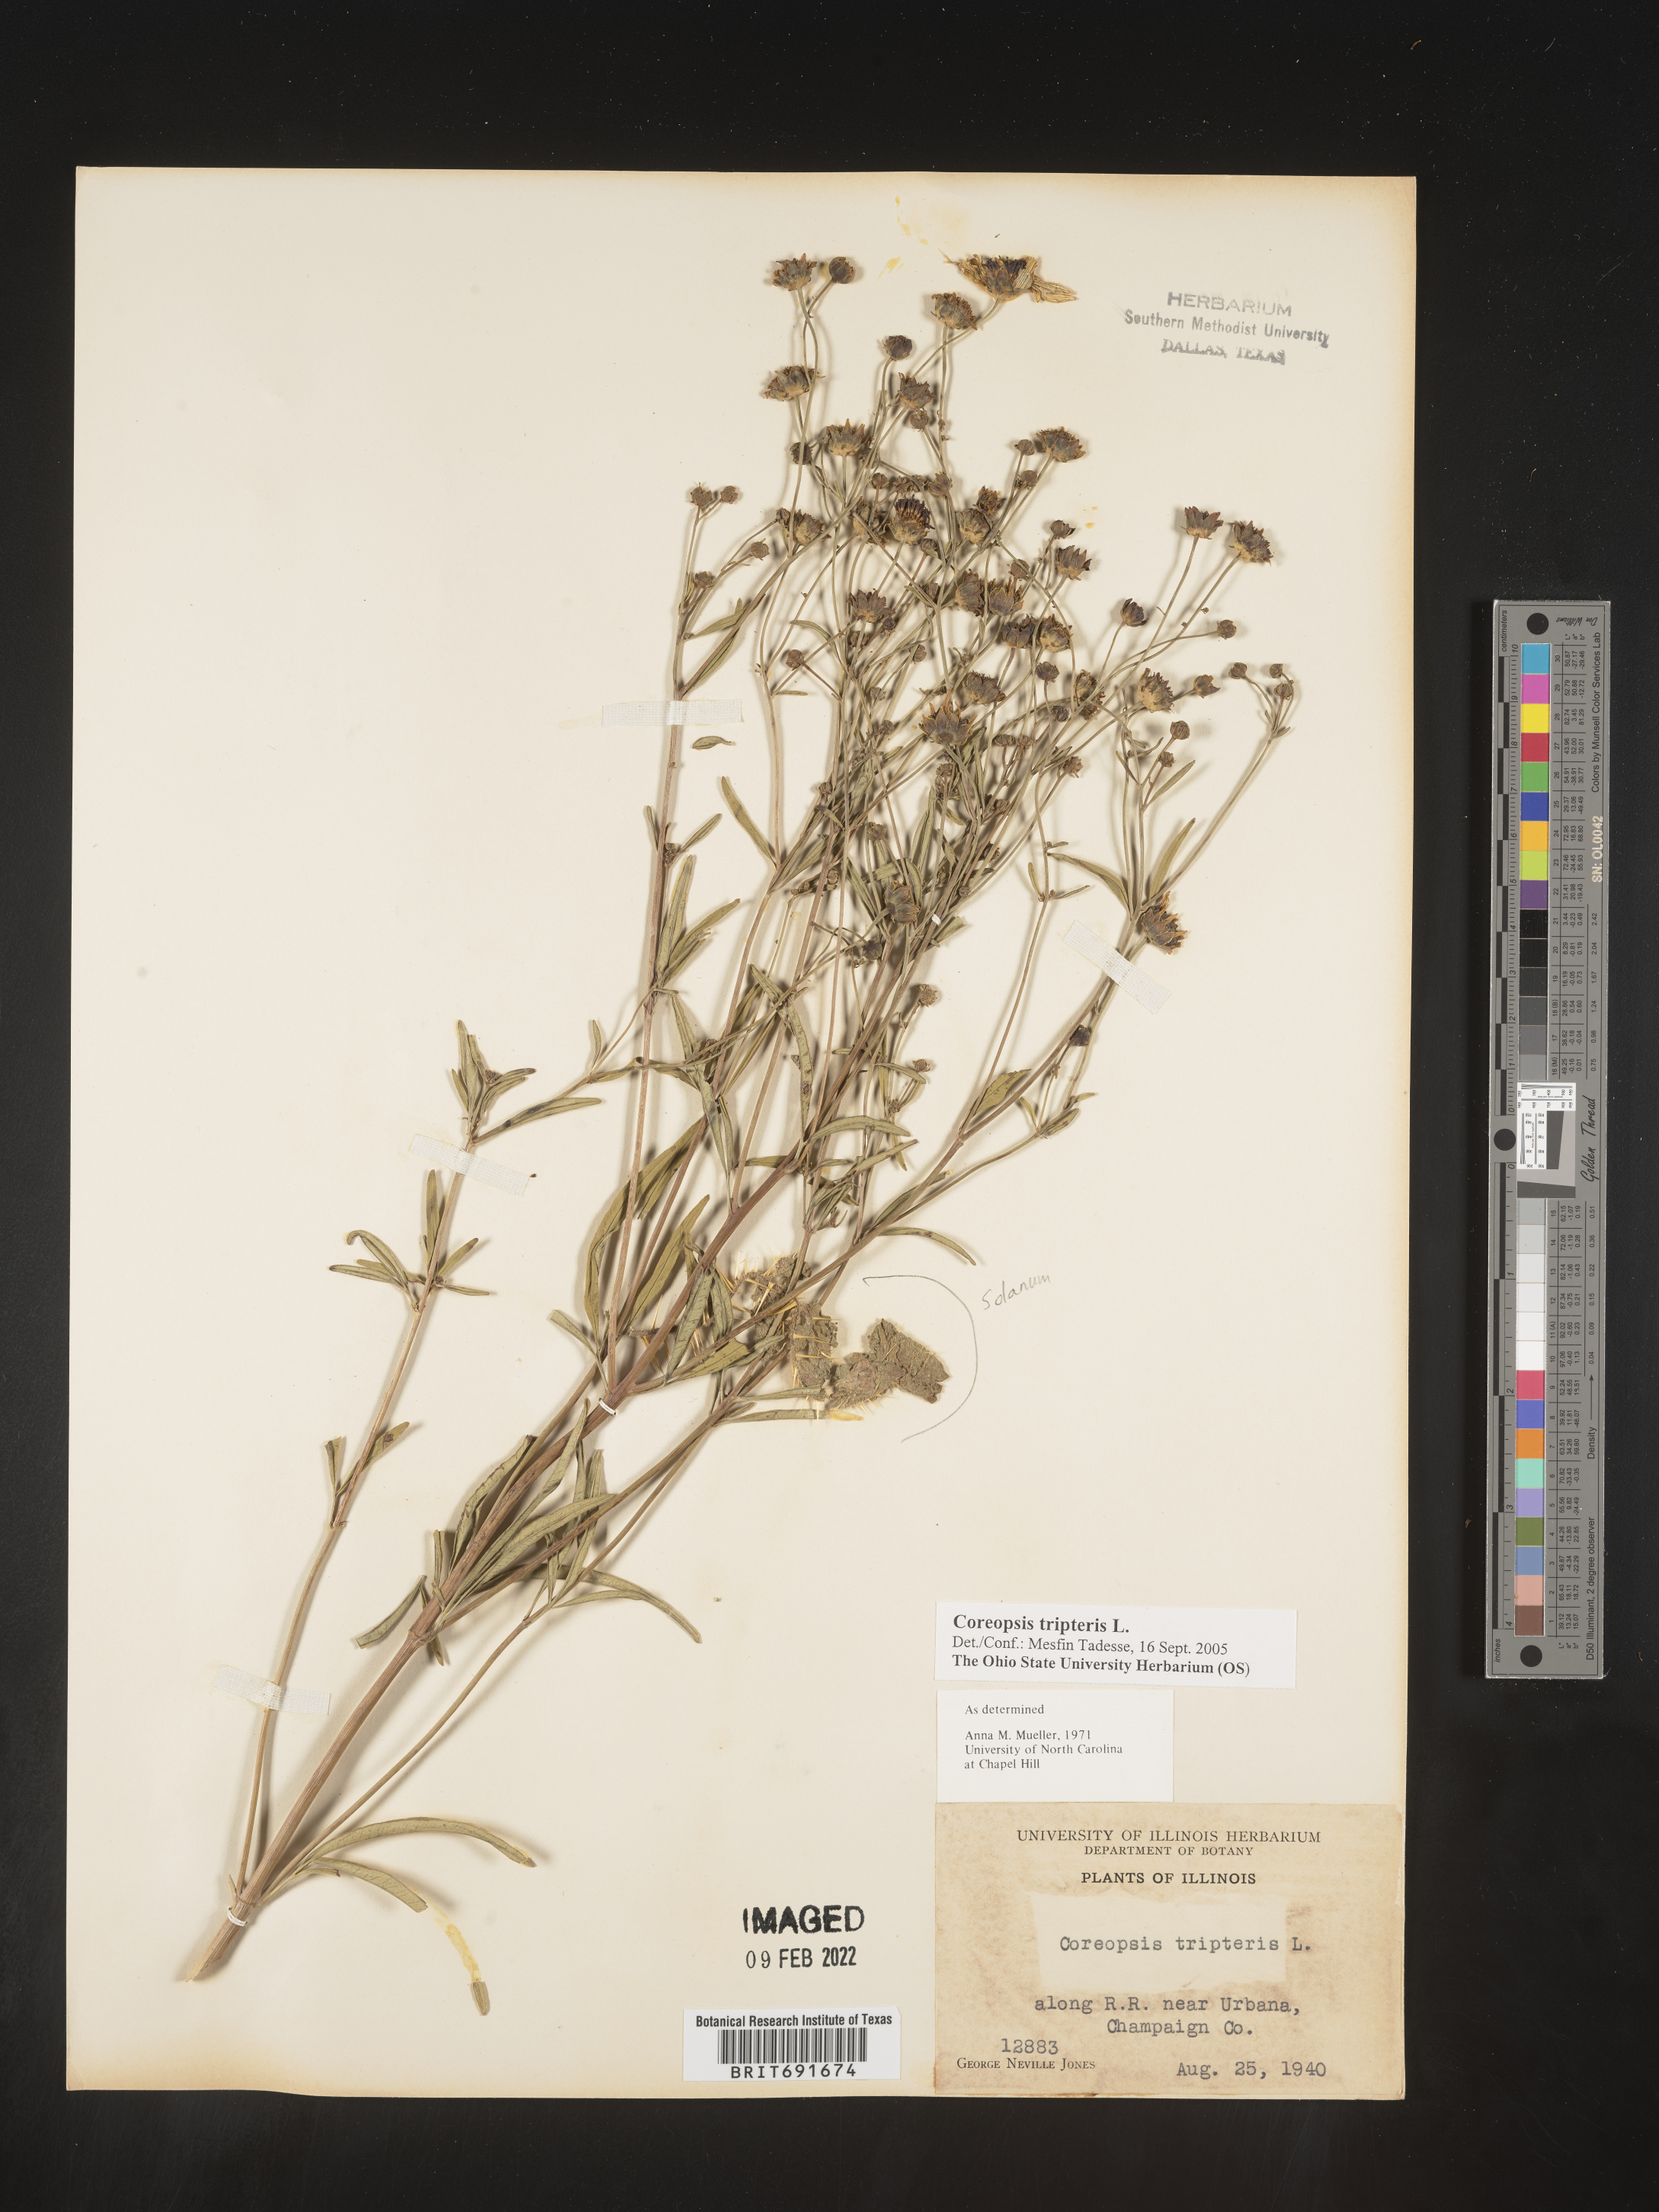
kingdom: Plantae
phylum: Tracheophyta
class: Magnoliopsida
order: Asterales
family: Asteraceae
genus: Coreopsis
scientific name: Coreopsis tripteris
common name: Tall coreopsis
